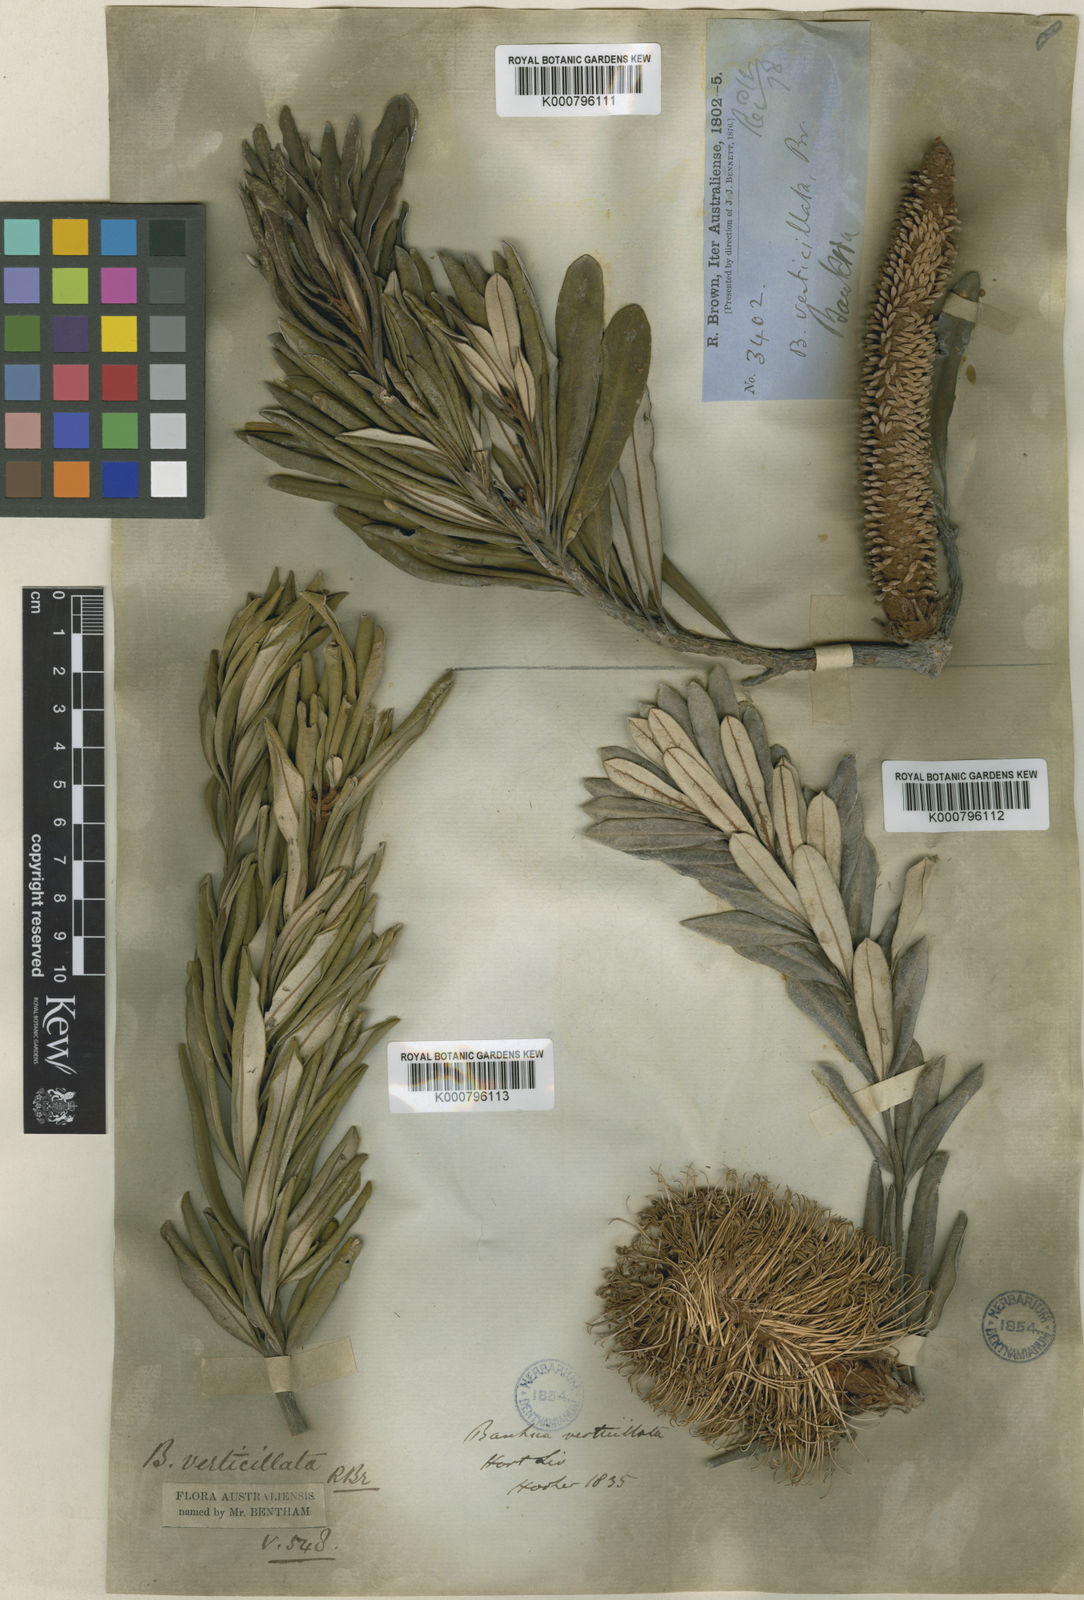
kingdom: Plantae
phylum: Tracheophyta
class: Magnoliopsida
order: Proteales
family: Proteaceae
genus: Banksia
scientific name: Banksia verticiliata
